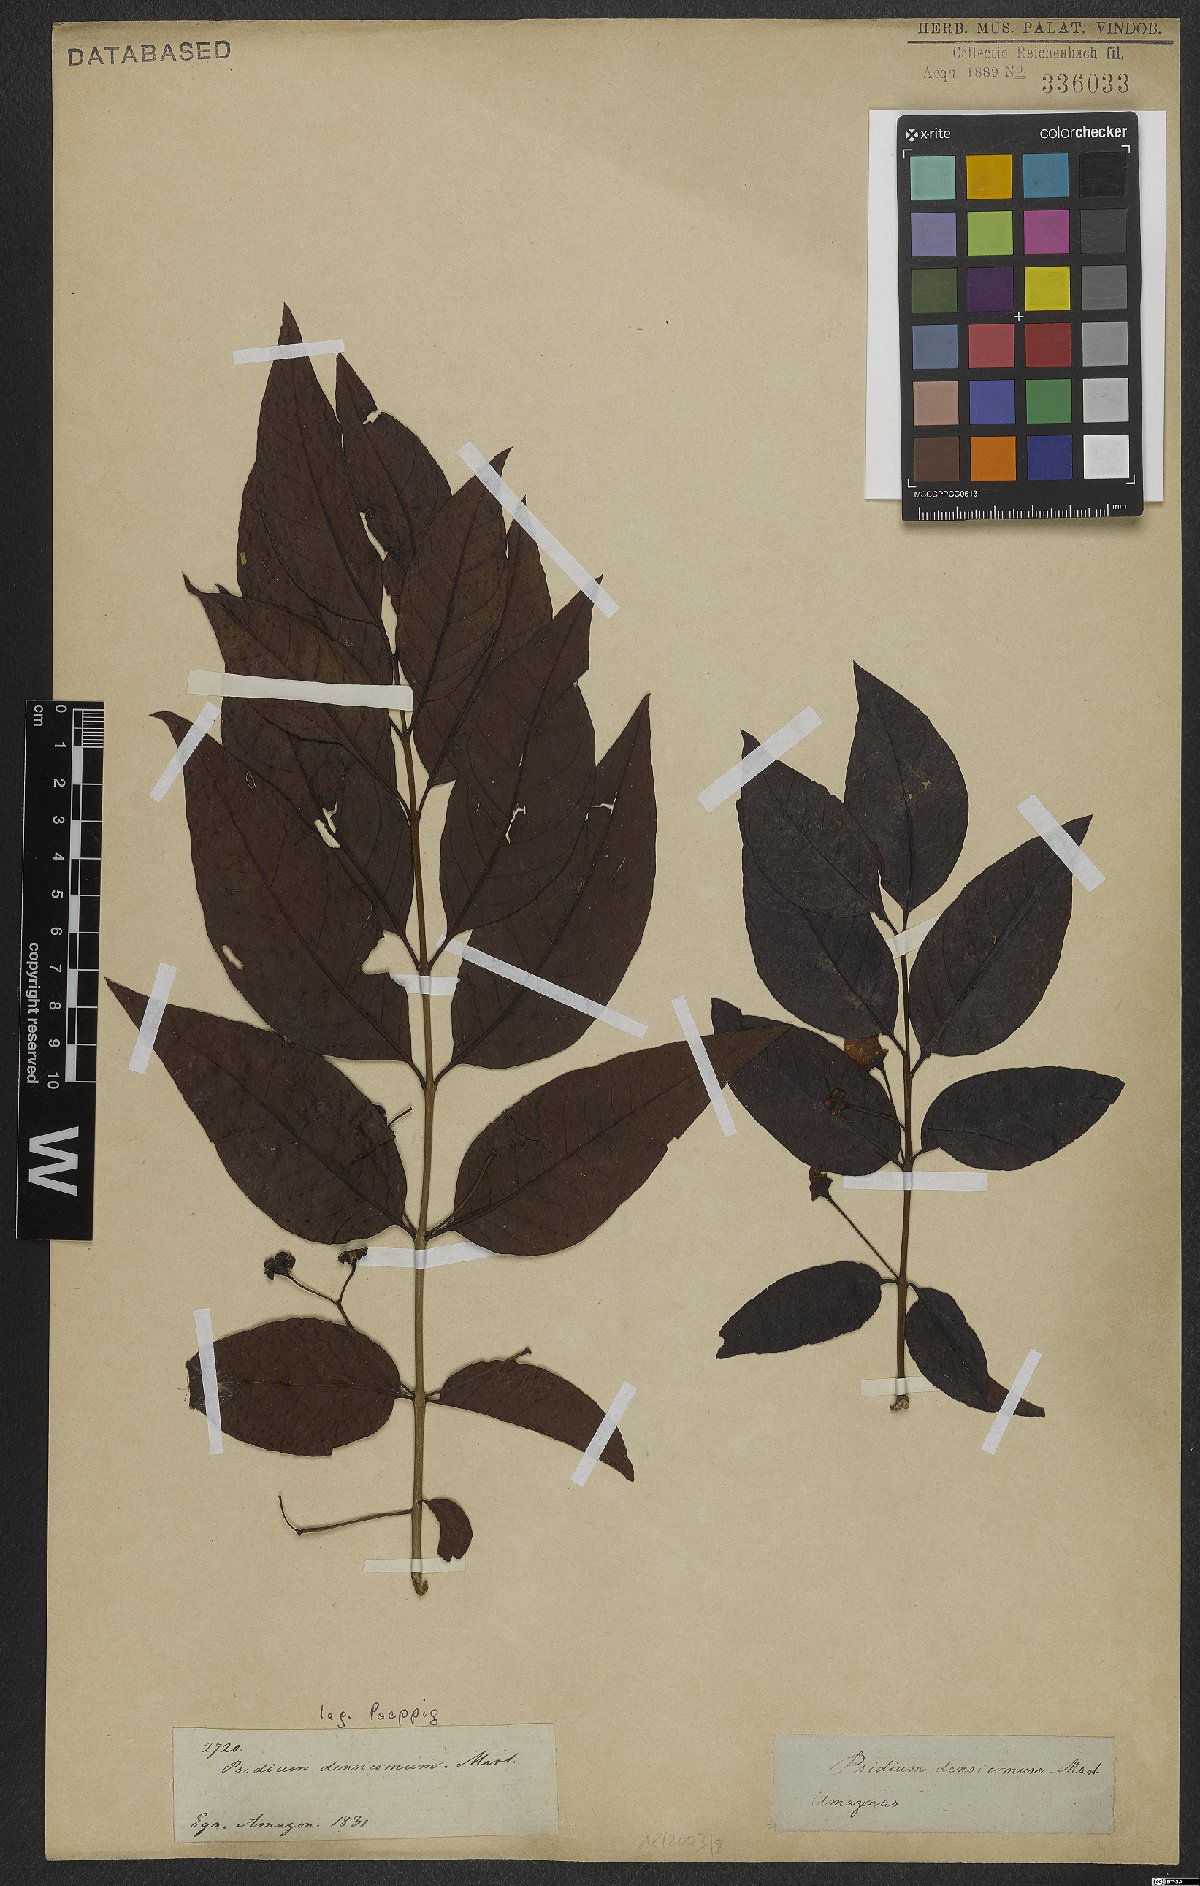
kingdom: Plantae
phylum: Tracheophyta
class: Magnoliopsida
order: Myrtales
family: Myrtaceae
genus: Psidium
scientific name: Psidium densicomum
